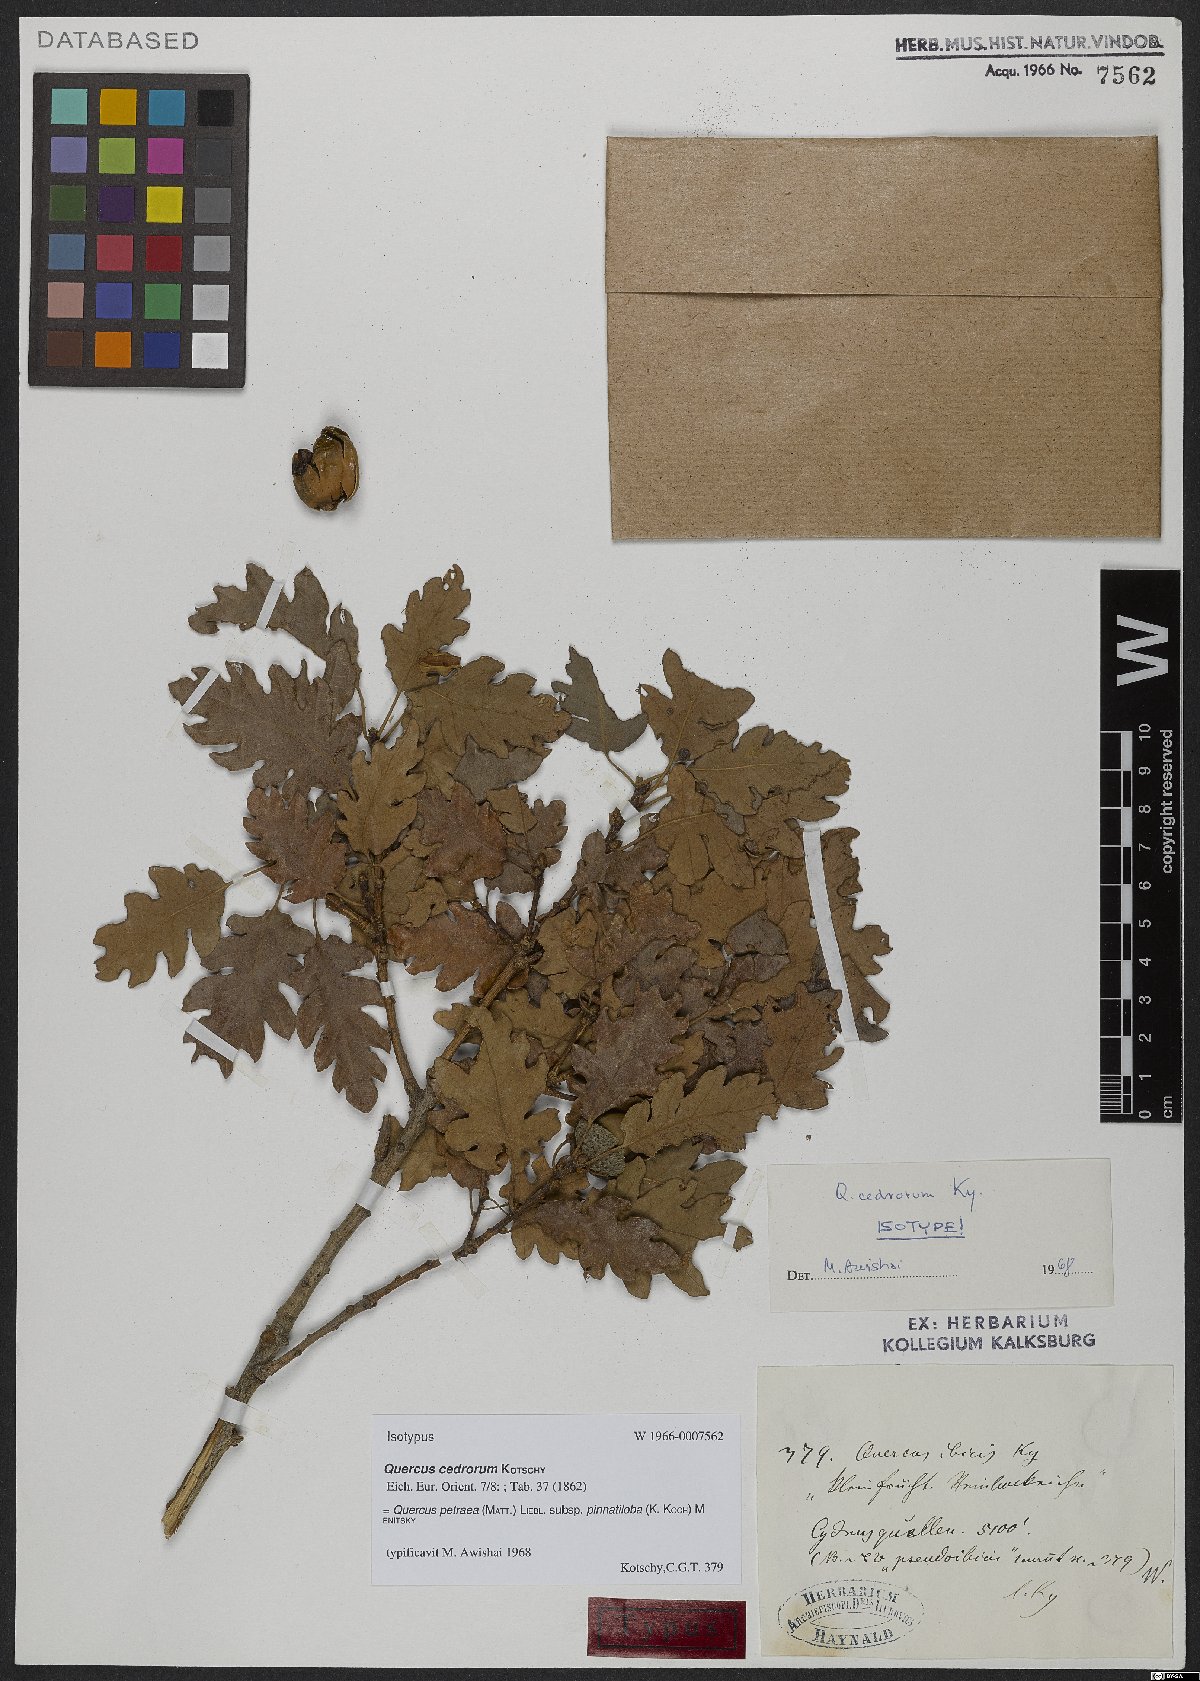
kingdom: Plantae
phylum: Tracheophyta
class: Magnoliopsida
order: Fagales
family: Fagaceae
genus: Quercus
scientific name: Quercus petraea
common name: Sessile oak
